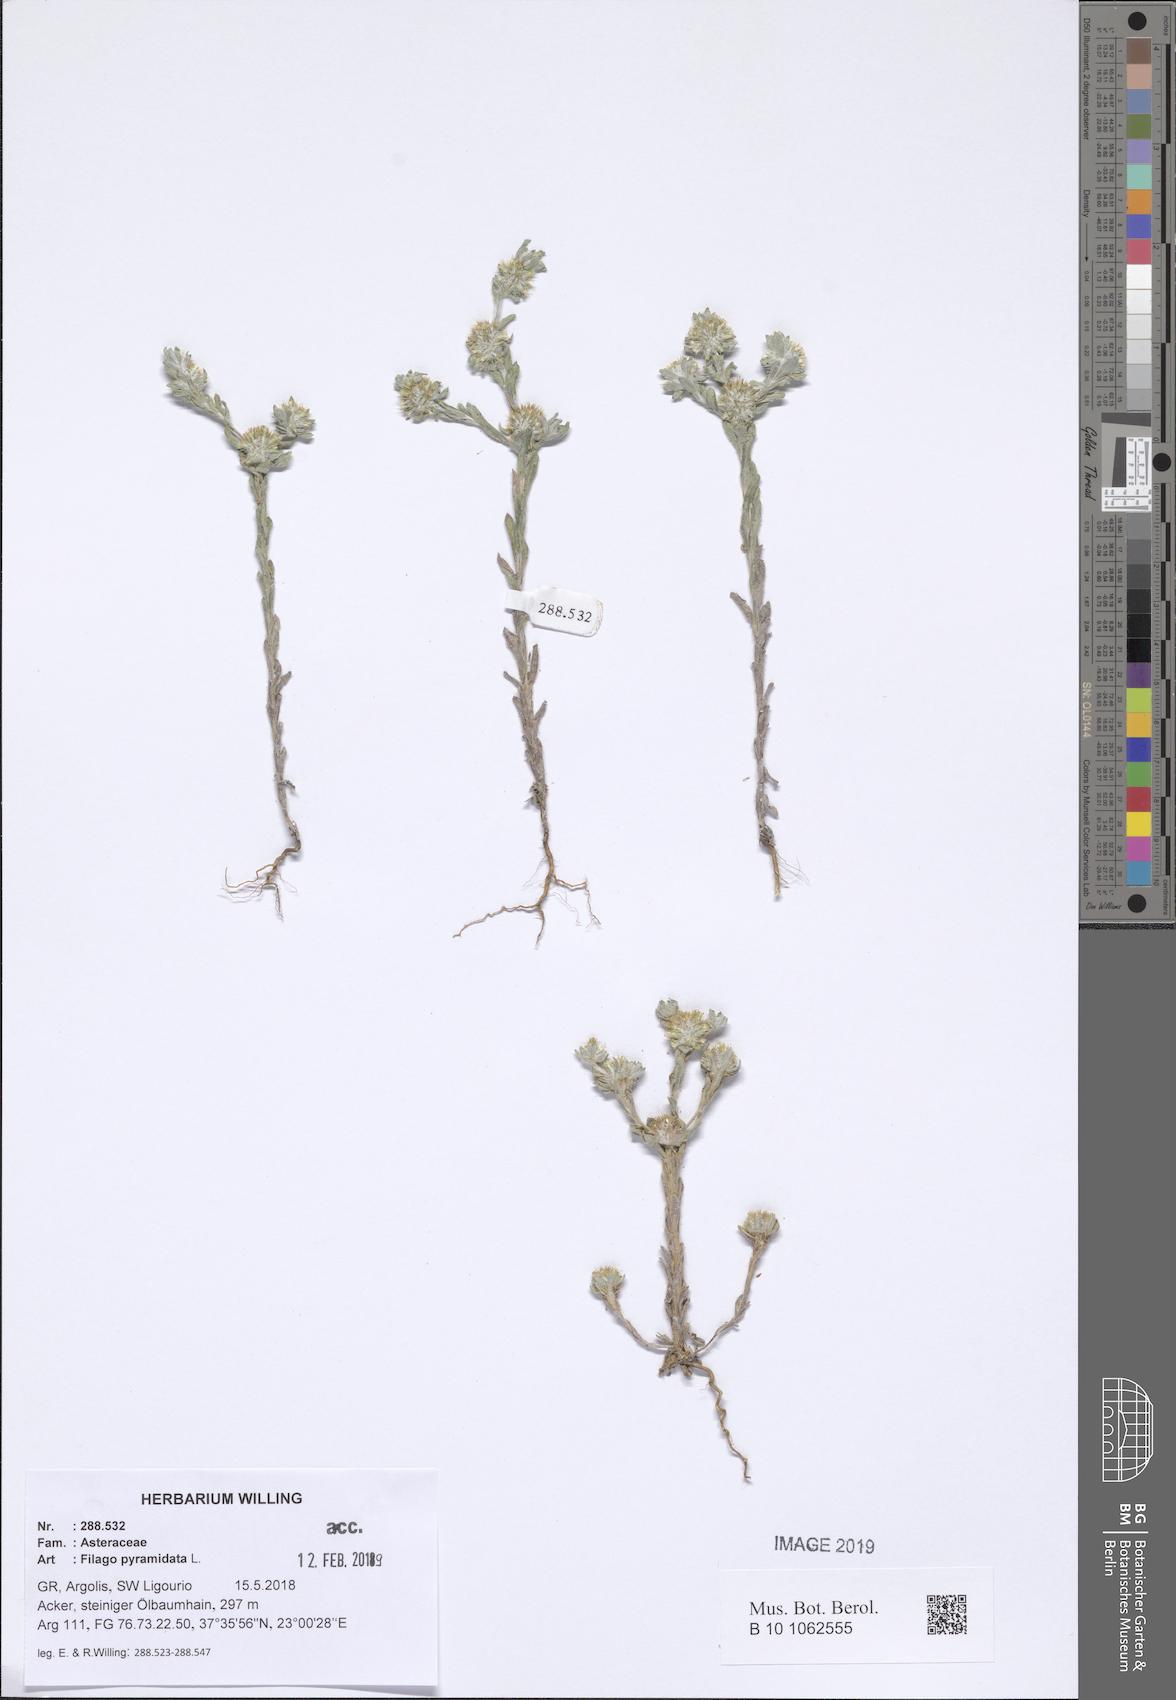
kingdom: Plantae
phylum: Tracheophyta
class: Magnoliopsida
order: Asterales
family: Asteraceae
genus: Filago
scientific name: Filago pyramidata
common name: Broad-leaved cudweed
